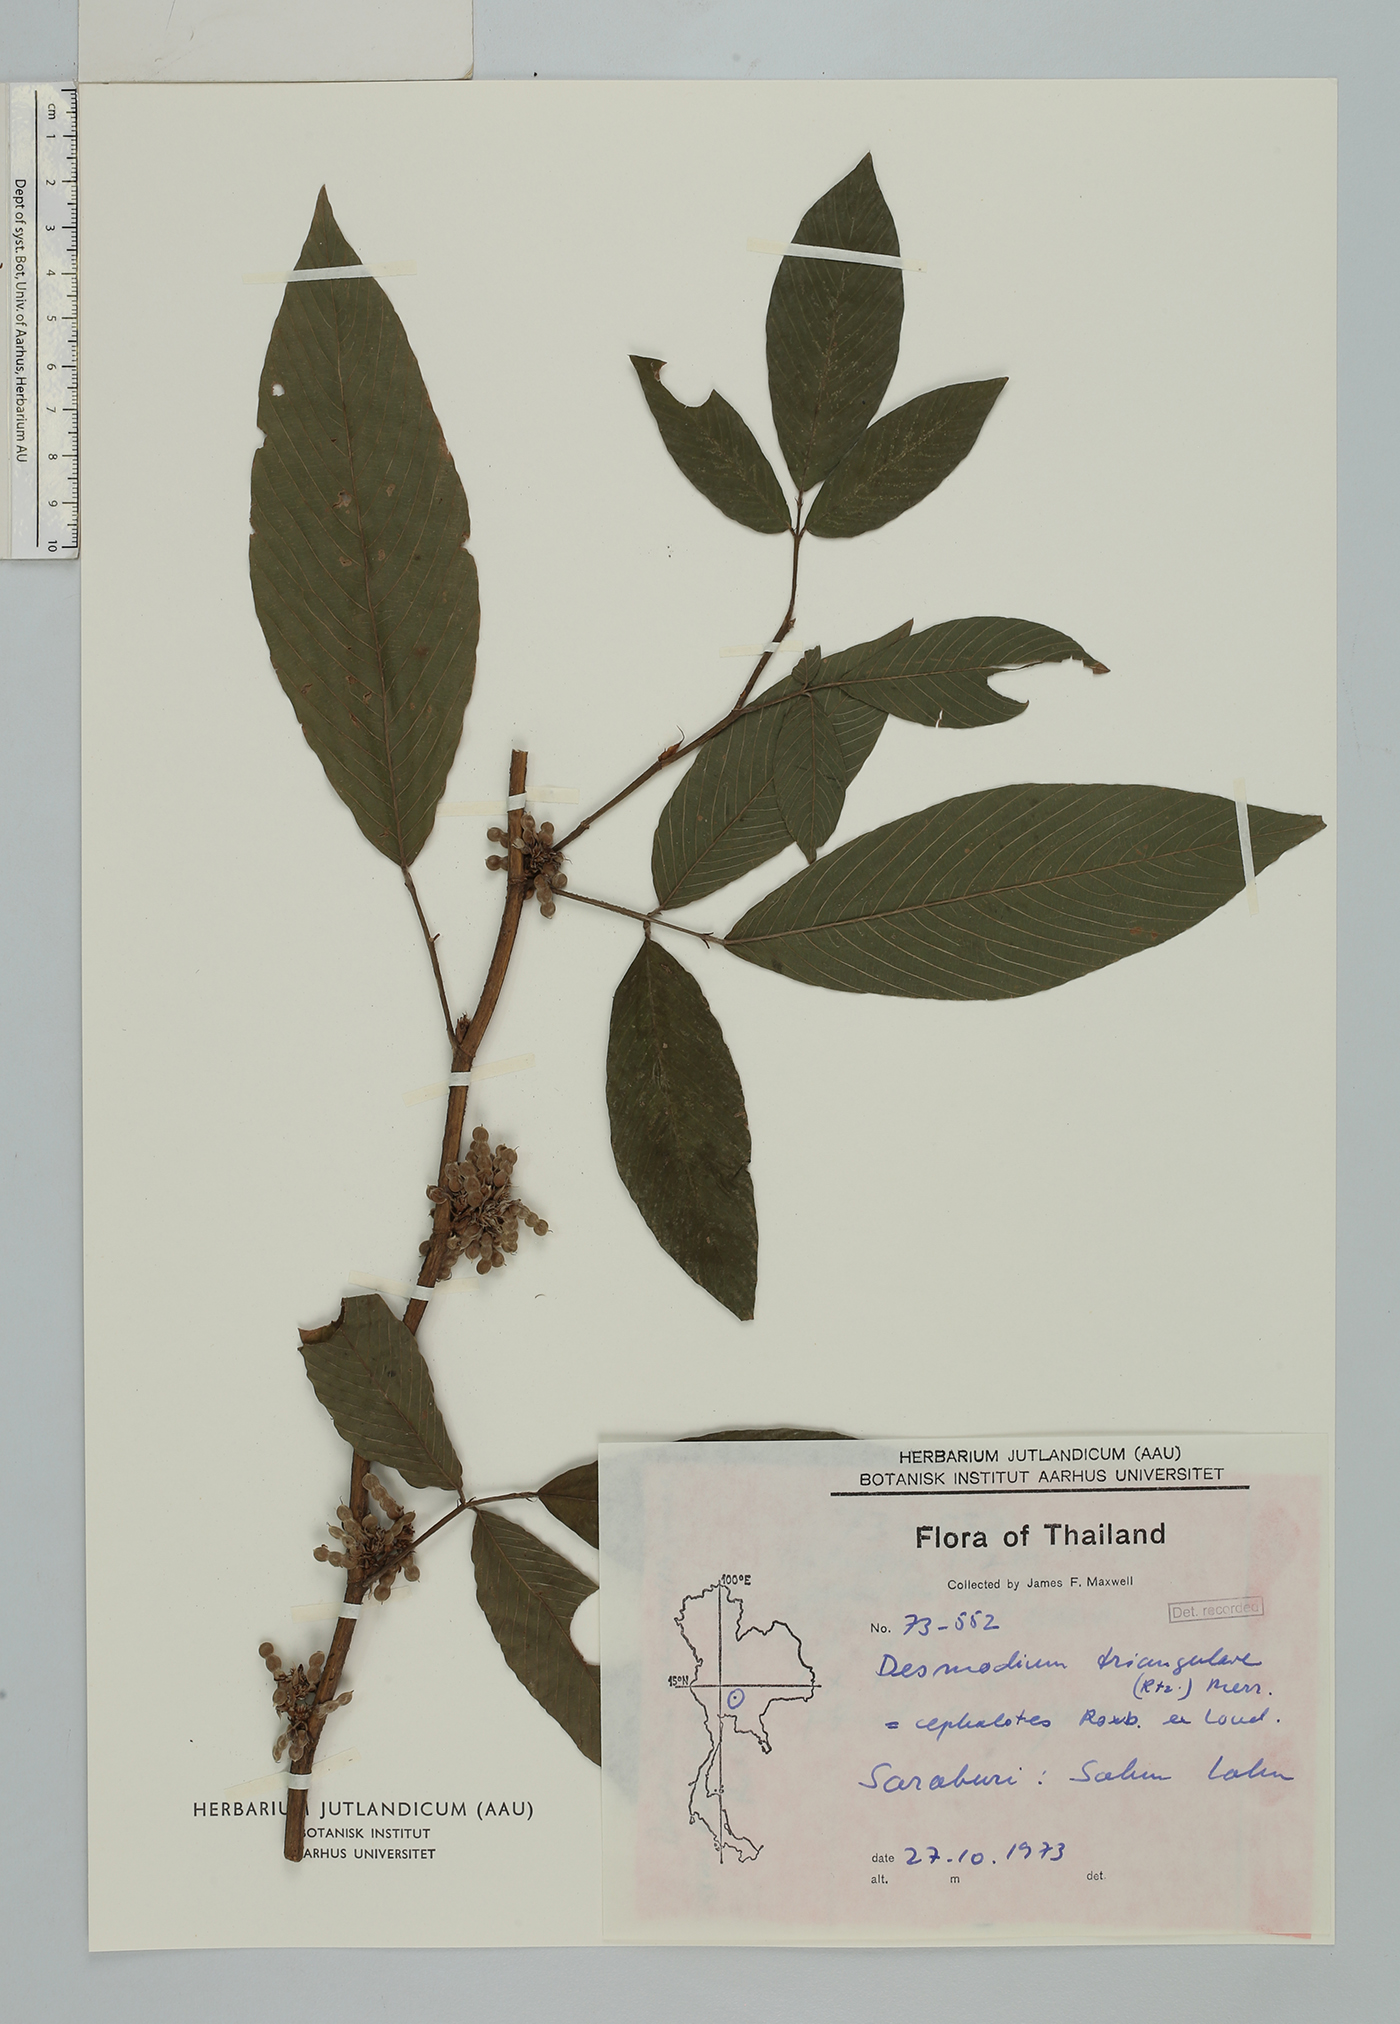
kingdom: Plantae
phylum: Tracheophyta
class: Magnoliopsida
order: Fabales
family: Fabaceae
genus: Dendrolobium
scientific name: Dendrolobium triangulare
